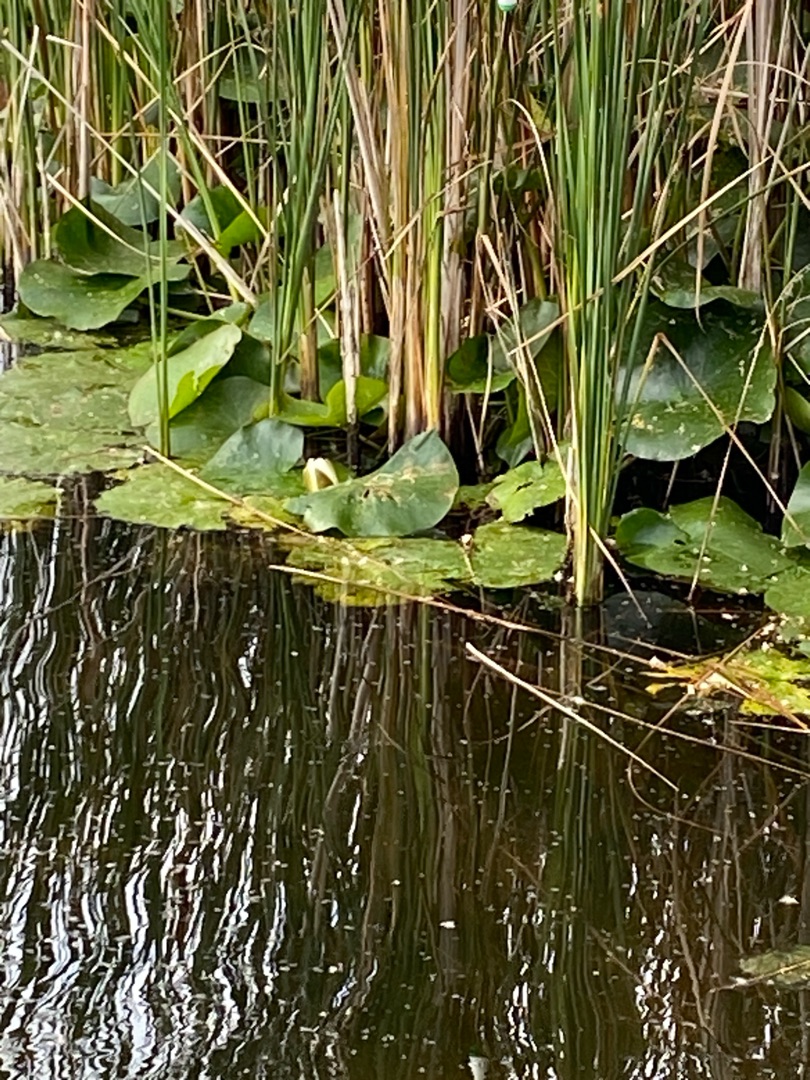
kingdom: Plantae
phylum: Tracheophyta
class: Magnoliopsida
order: Nymphaeales
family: Nymphaeaceae
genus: Nymphaea
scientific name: Nymphaea alba
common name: Hvid åkande
